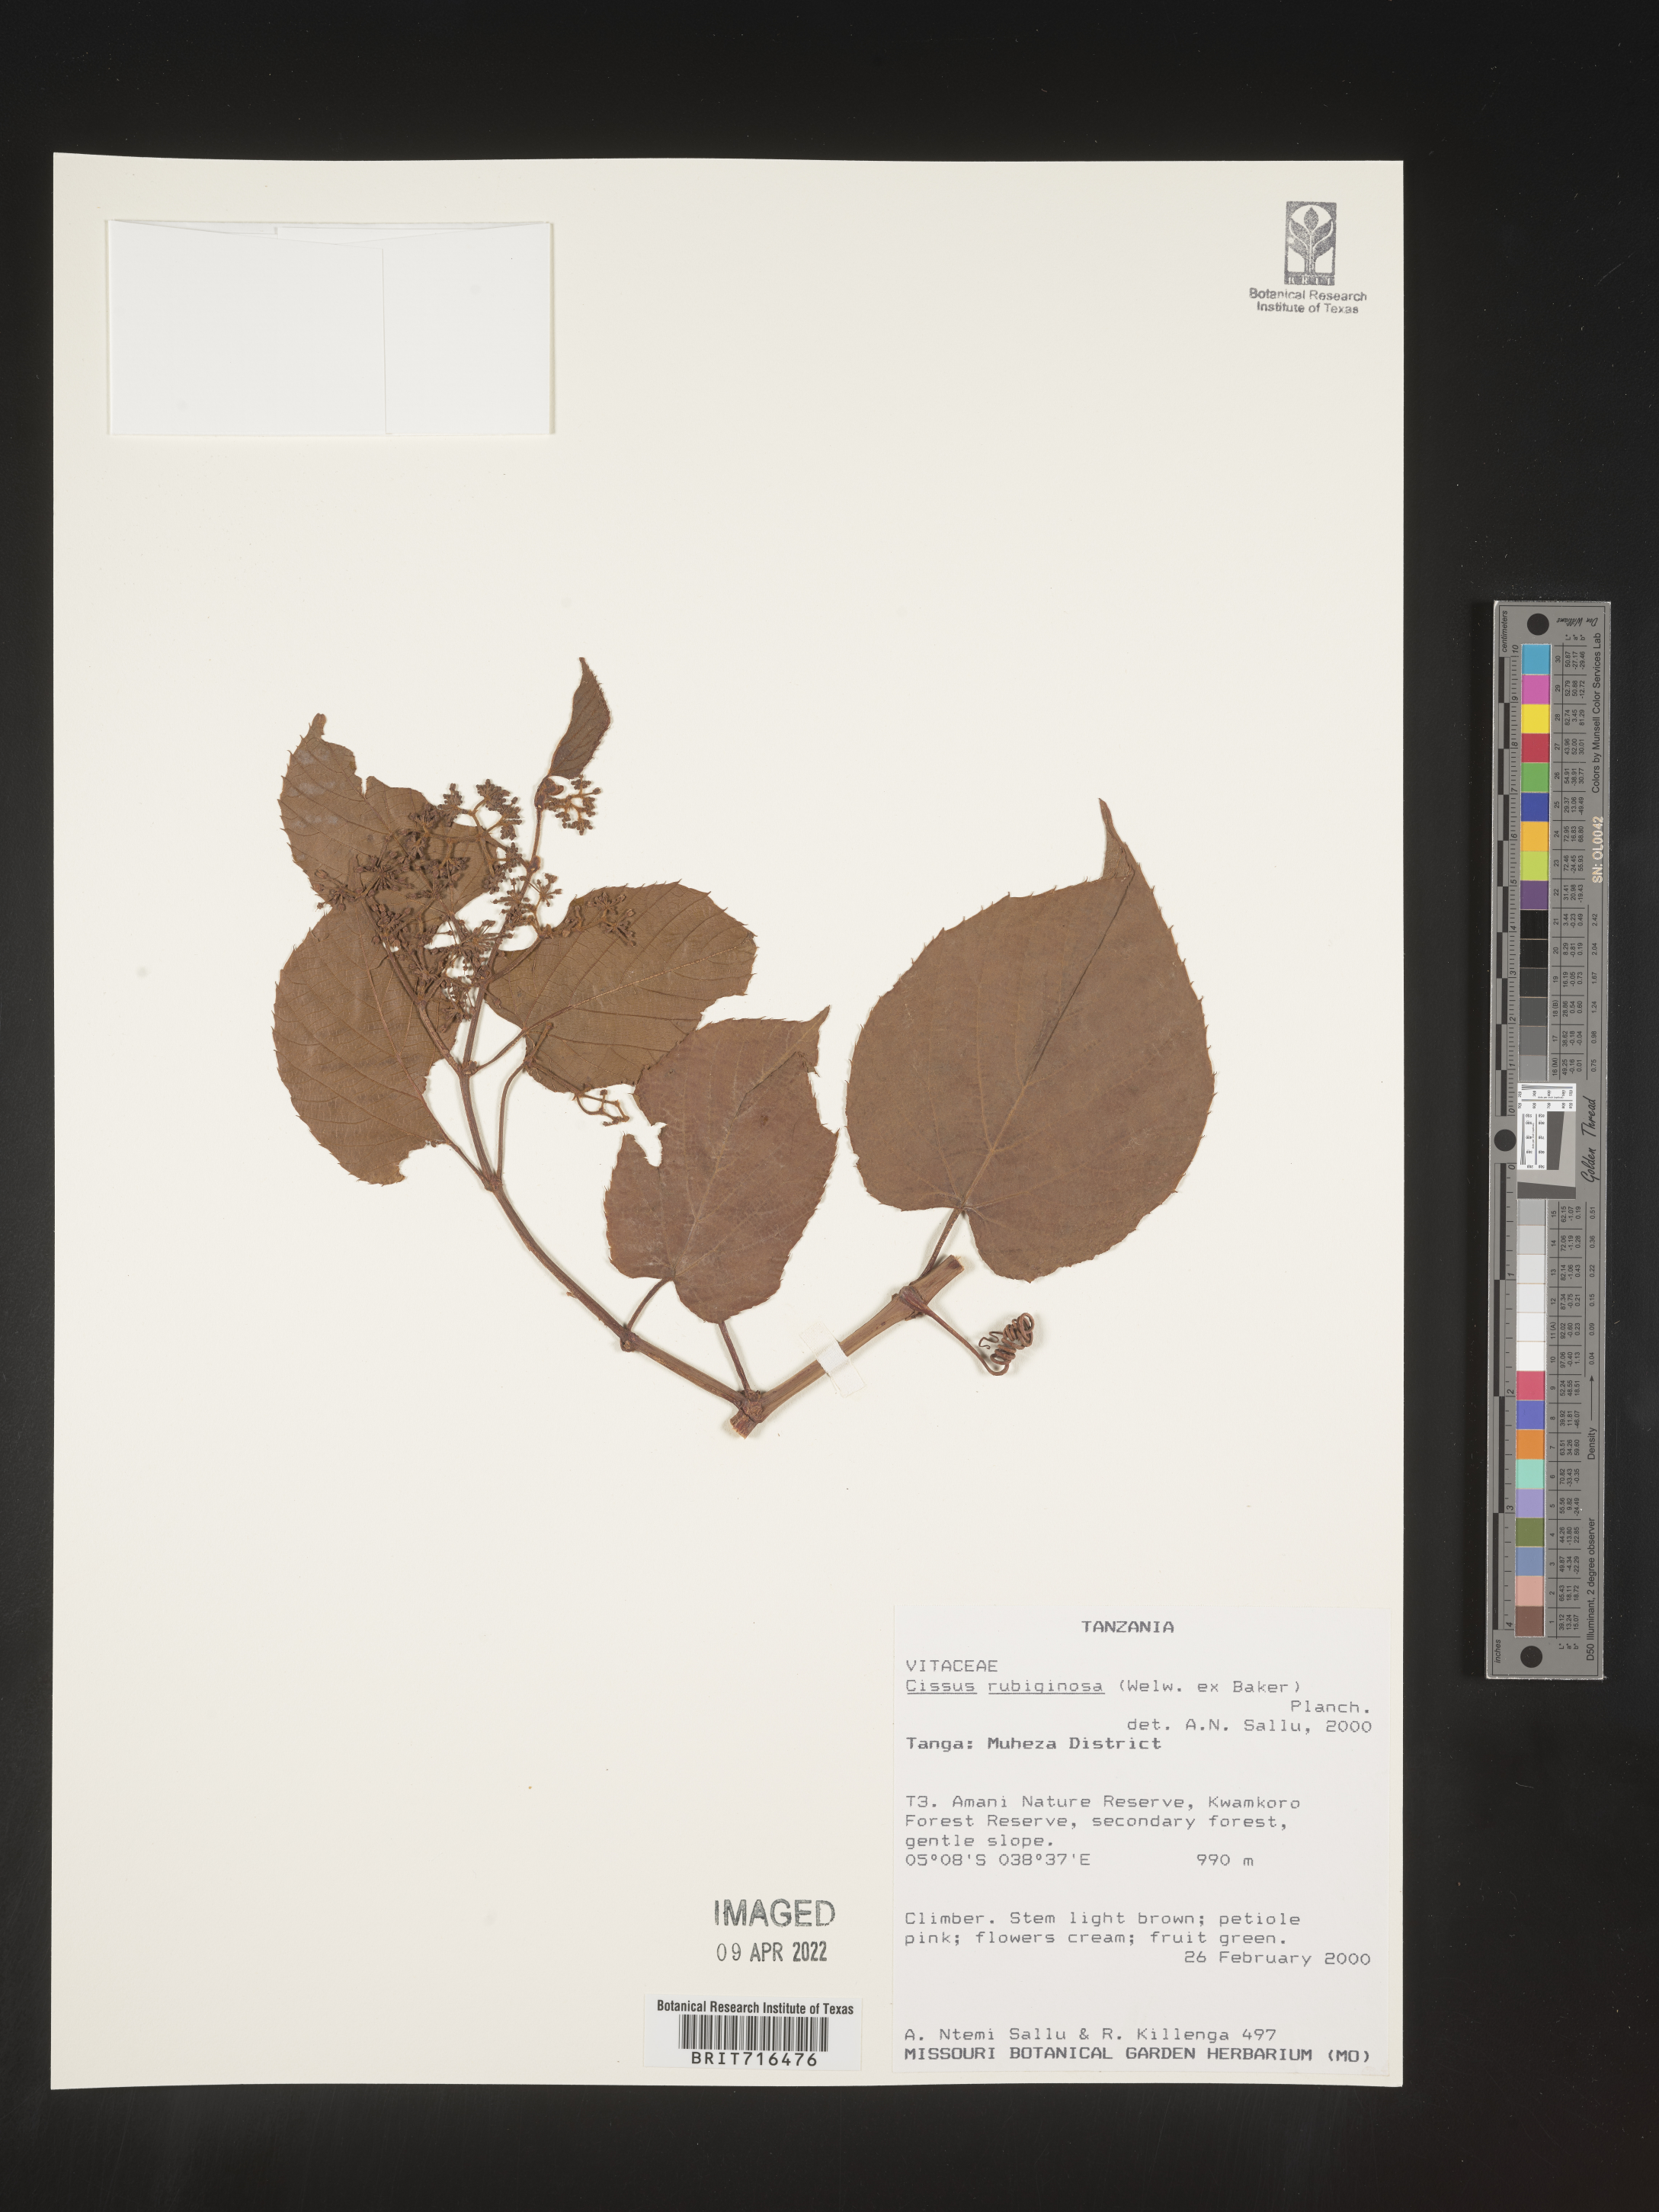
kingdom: Plantae
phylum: Tracheophyta
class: Magnoliopsida
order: Vitales
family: Vitaceae
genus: Cissus
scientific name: Cissus
